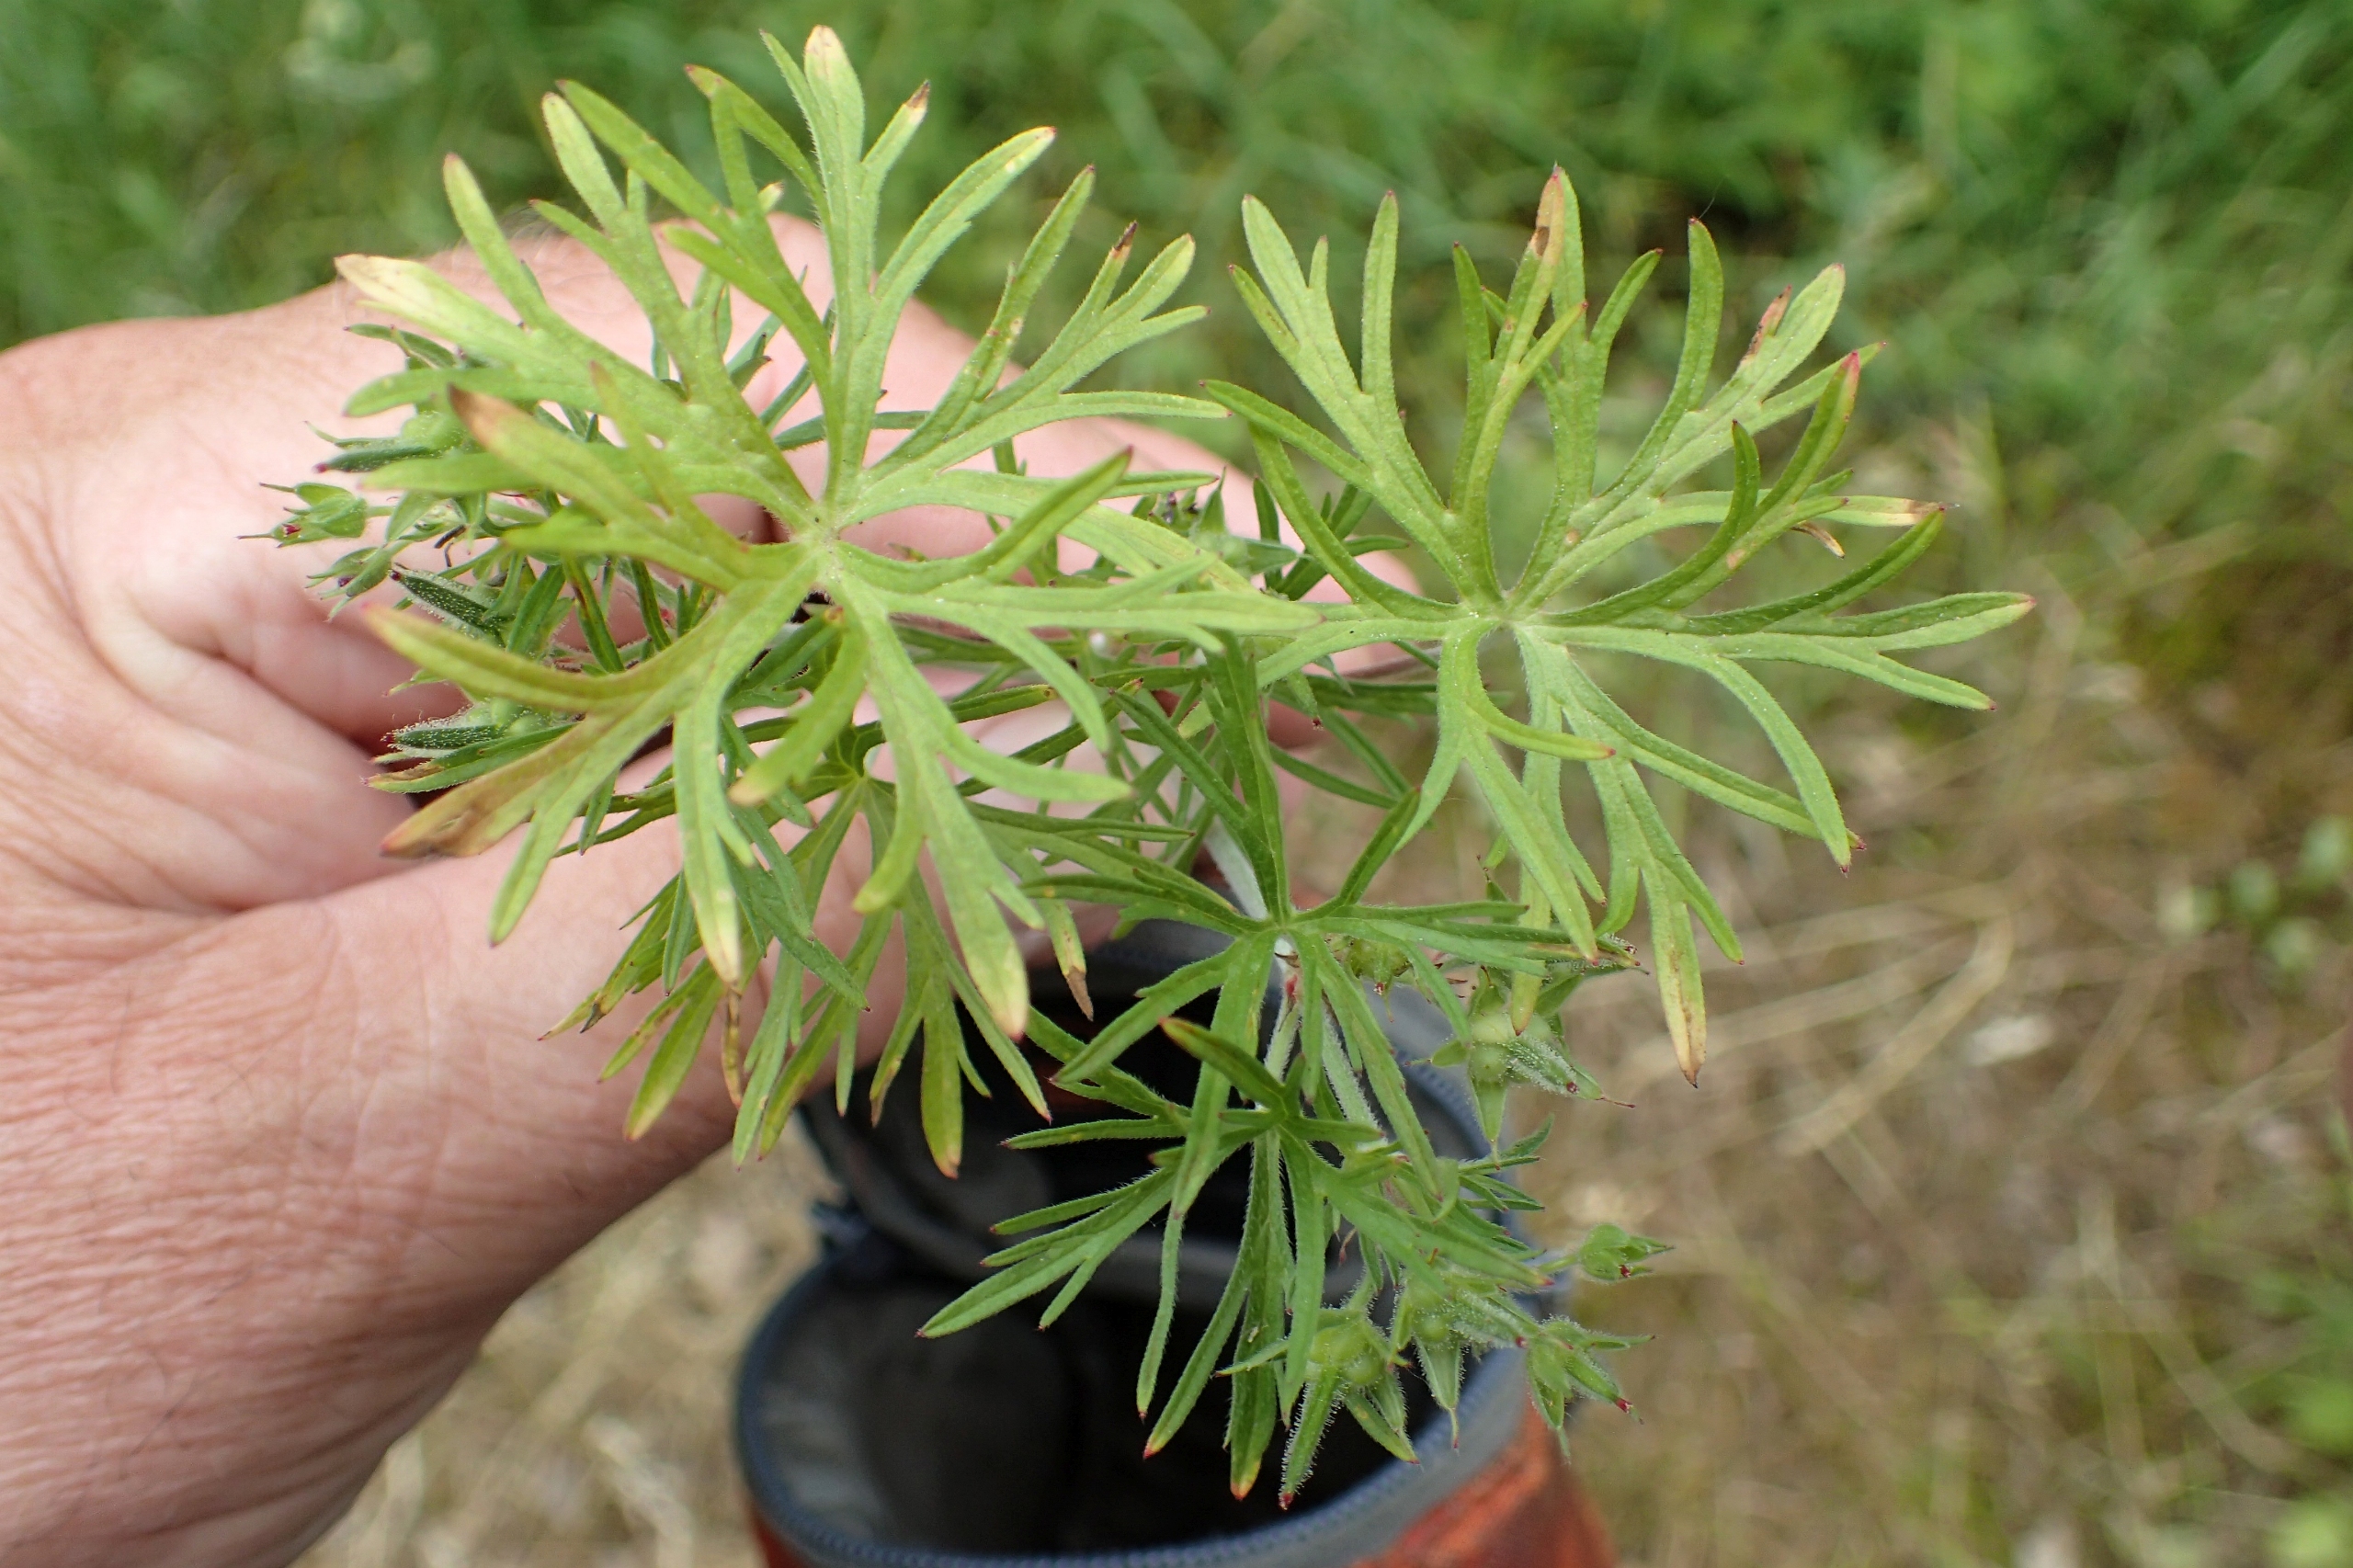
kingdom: Plantae
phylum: Tracheophyta
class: Magnoliopsida
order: Geraniales
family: Geraniaceae
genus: Geranium
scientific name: Geranium dissectum
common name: Kløftet storkenæb
